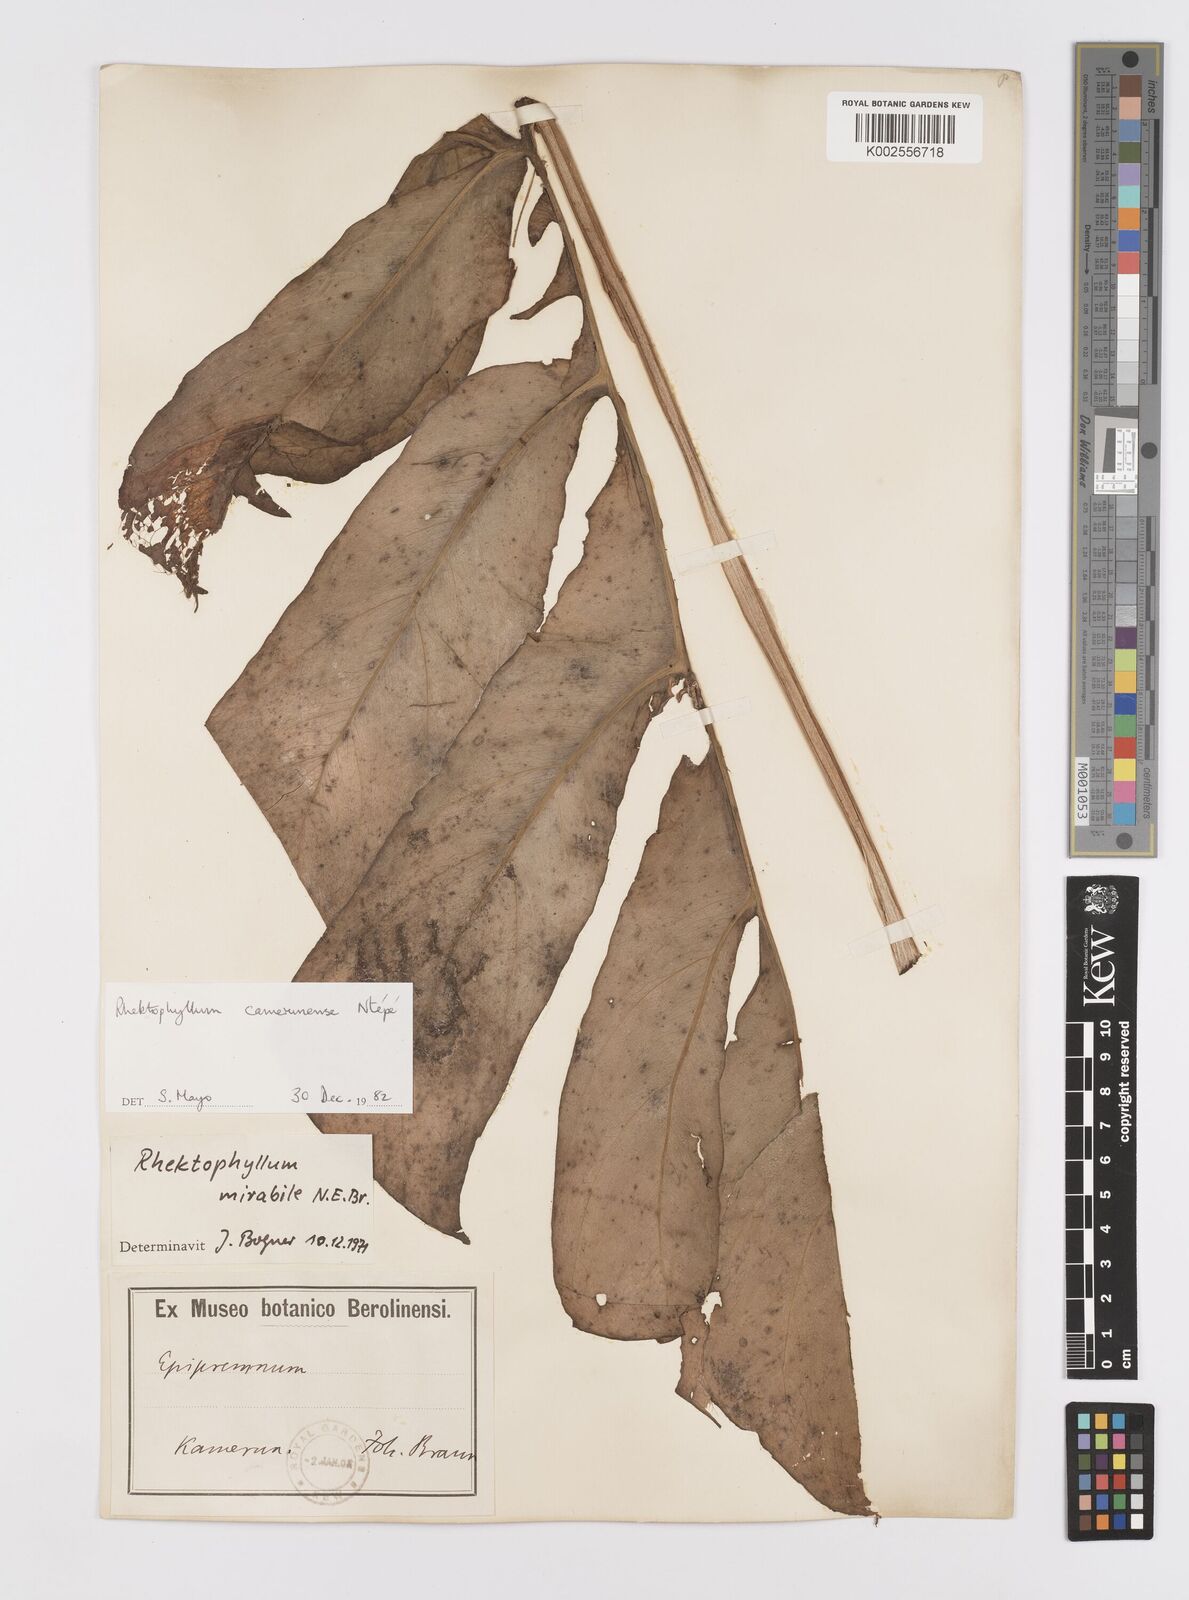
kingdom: Plantae
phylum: Tracheophyta
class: Liliopsida
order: Alismatales
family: Araceae
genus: Cercestis
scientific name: Cercestis camerunensis
